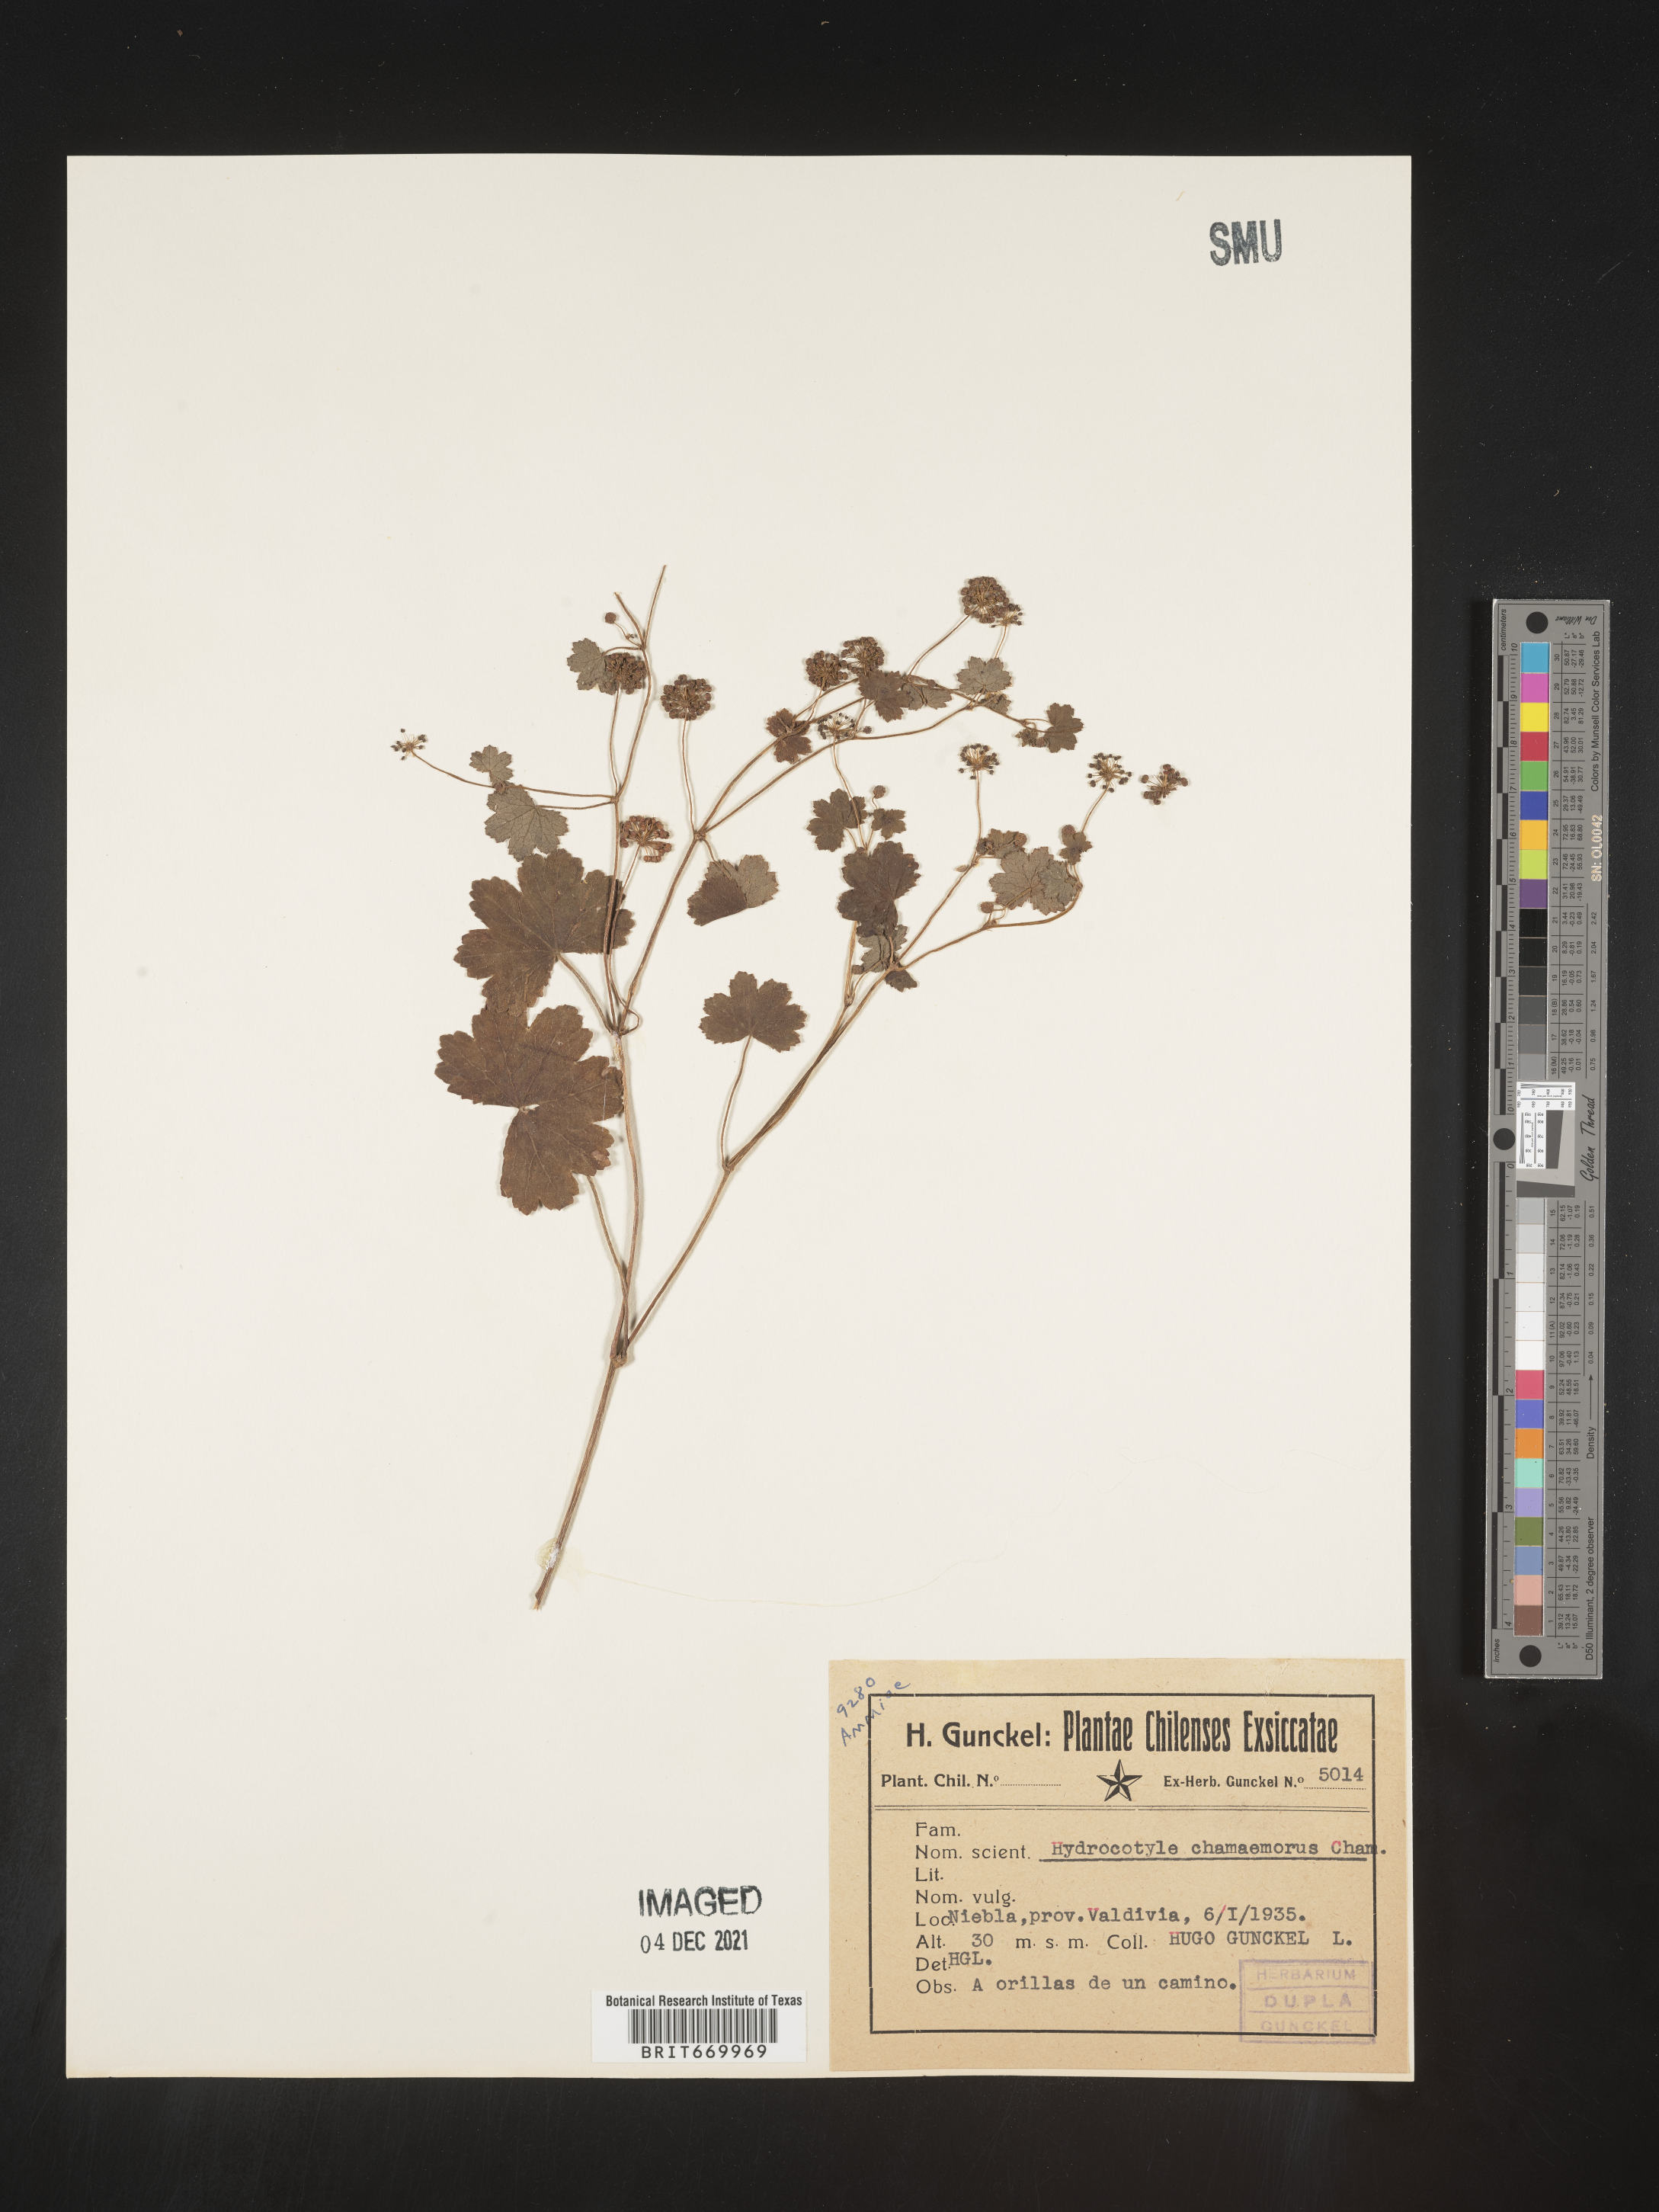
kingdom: Plantae
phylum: Tracheophyta
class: Magnoliopsida
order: Apiales
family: Araliaceae
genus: Hydrocotyle
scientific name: Hydrocotyle
